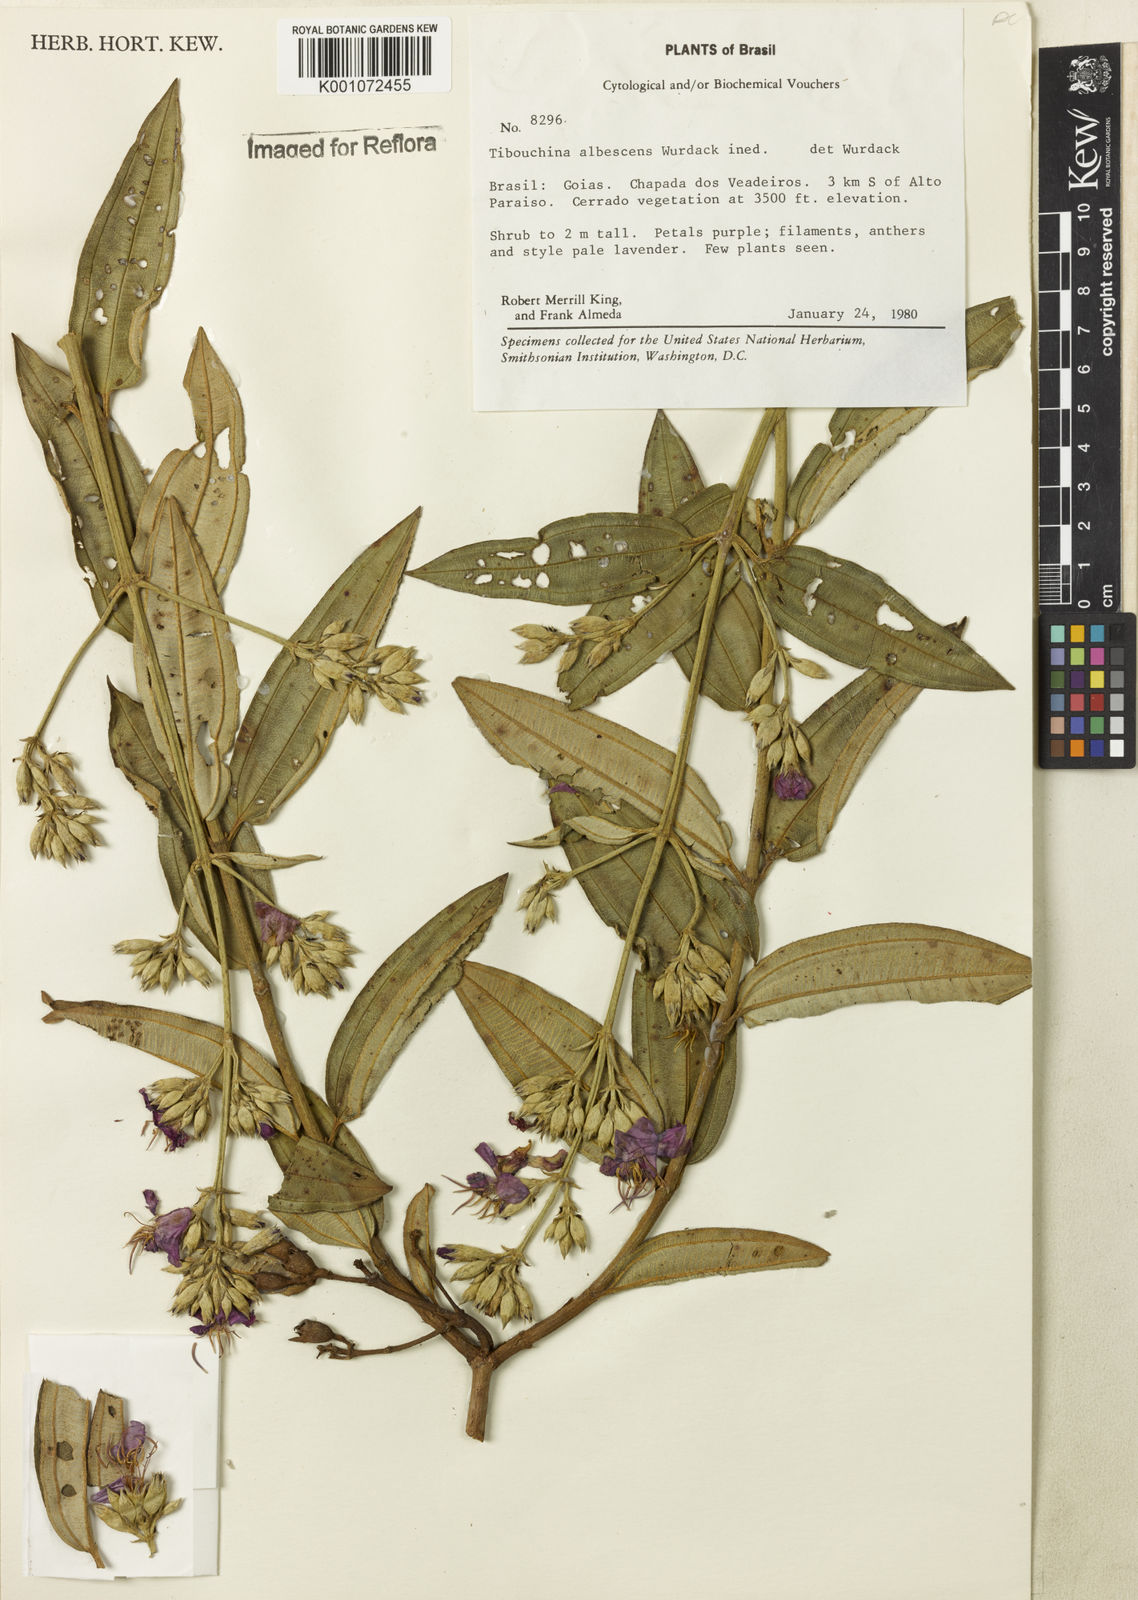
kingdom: Plantae
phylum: Tracheophyta
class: Magnoliopsida
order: Myrtales
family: Melastomataceae
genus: Tibouchina
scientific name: Tibouchina
